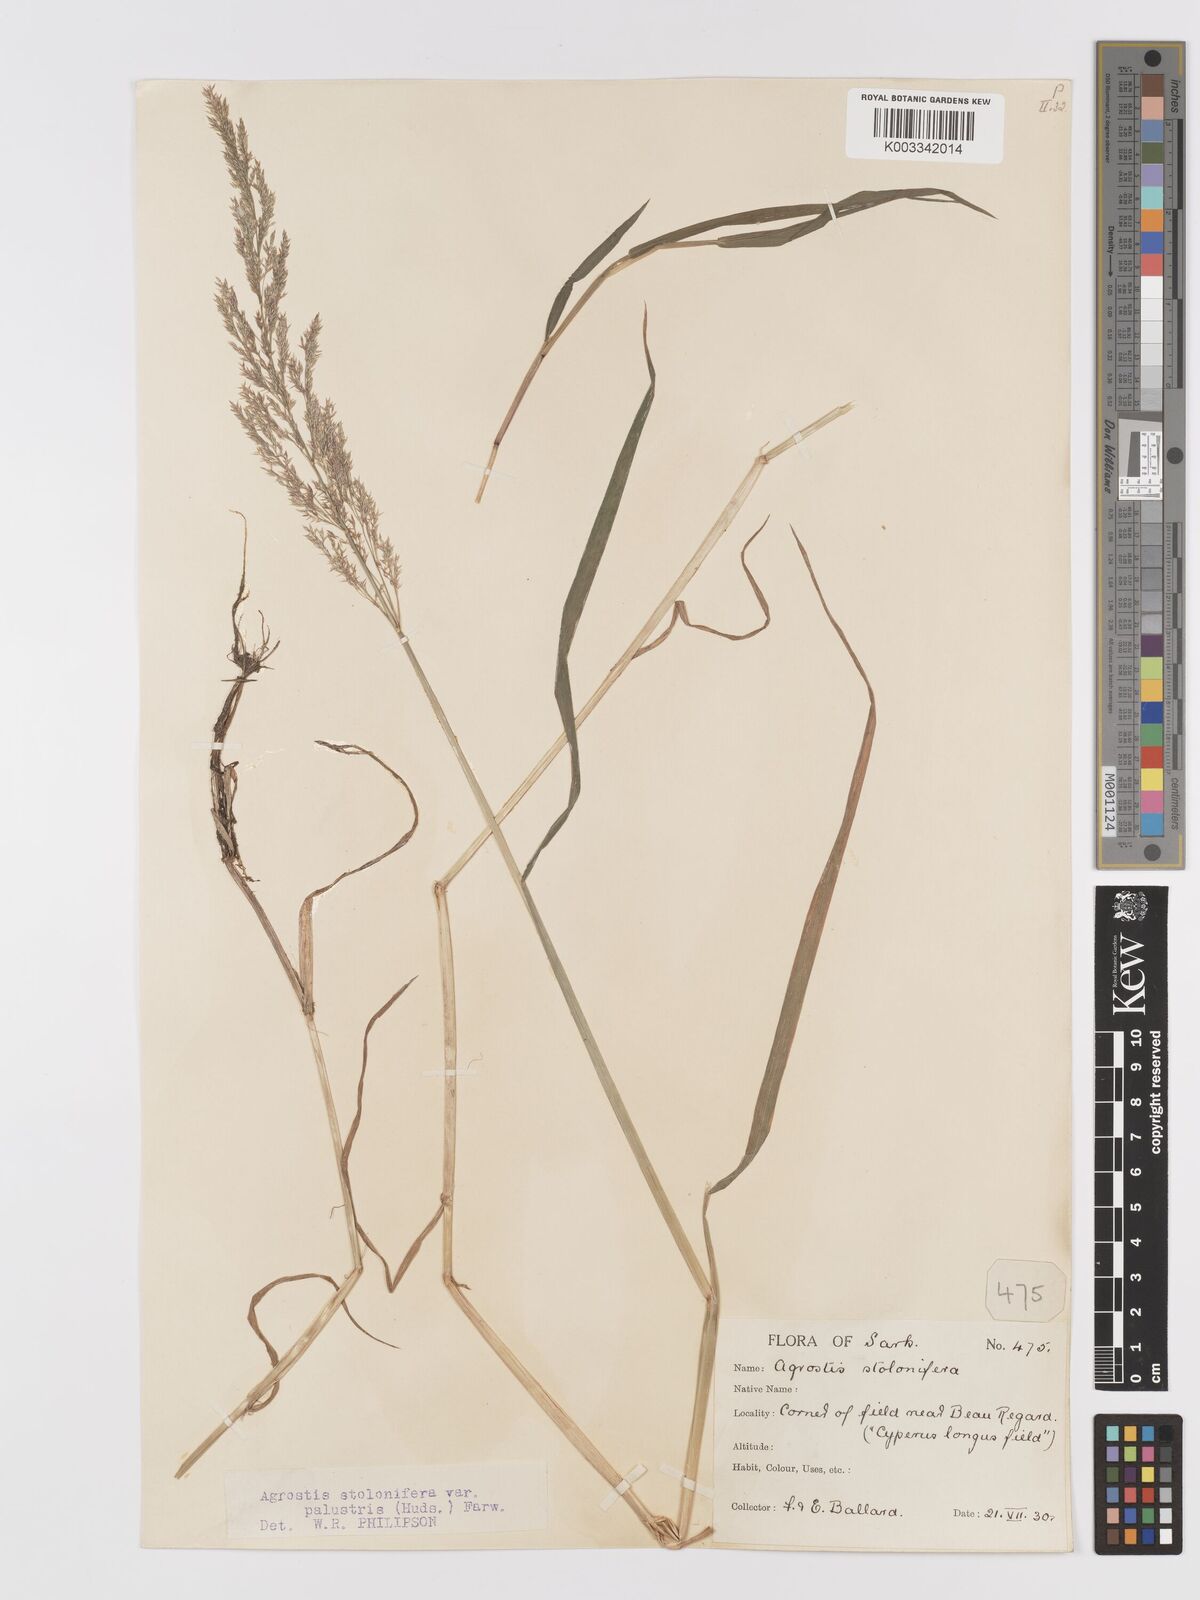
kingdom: Plantae
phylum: Tracheophyta
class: Liliopsida
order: Poales
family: Poaceae
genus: Agrostis
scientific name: Agrostis stolonifera
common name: Creeping bentgrass
